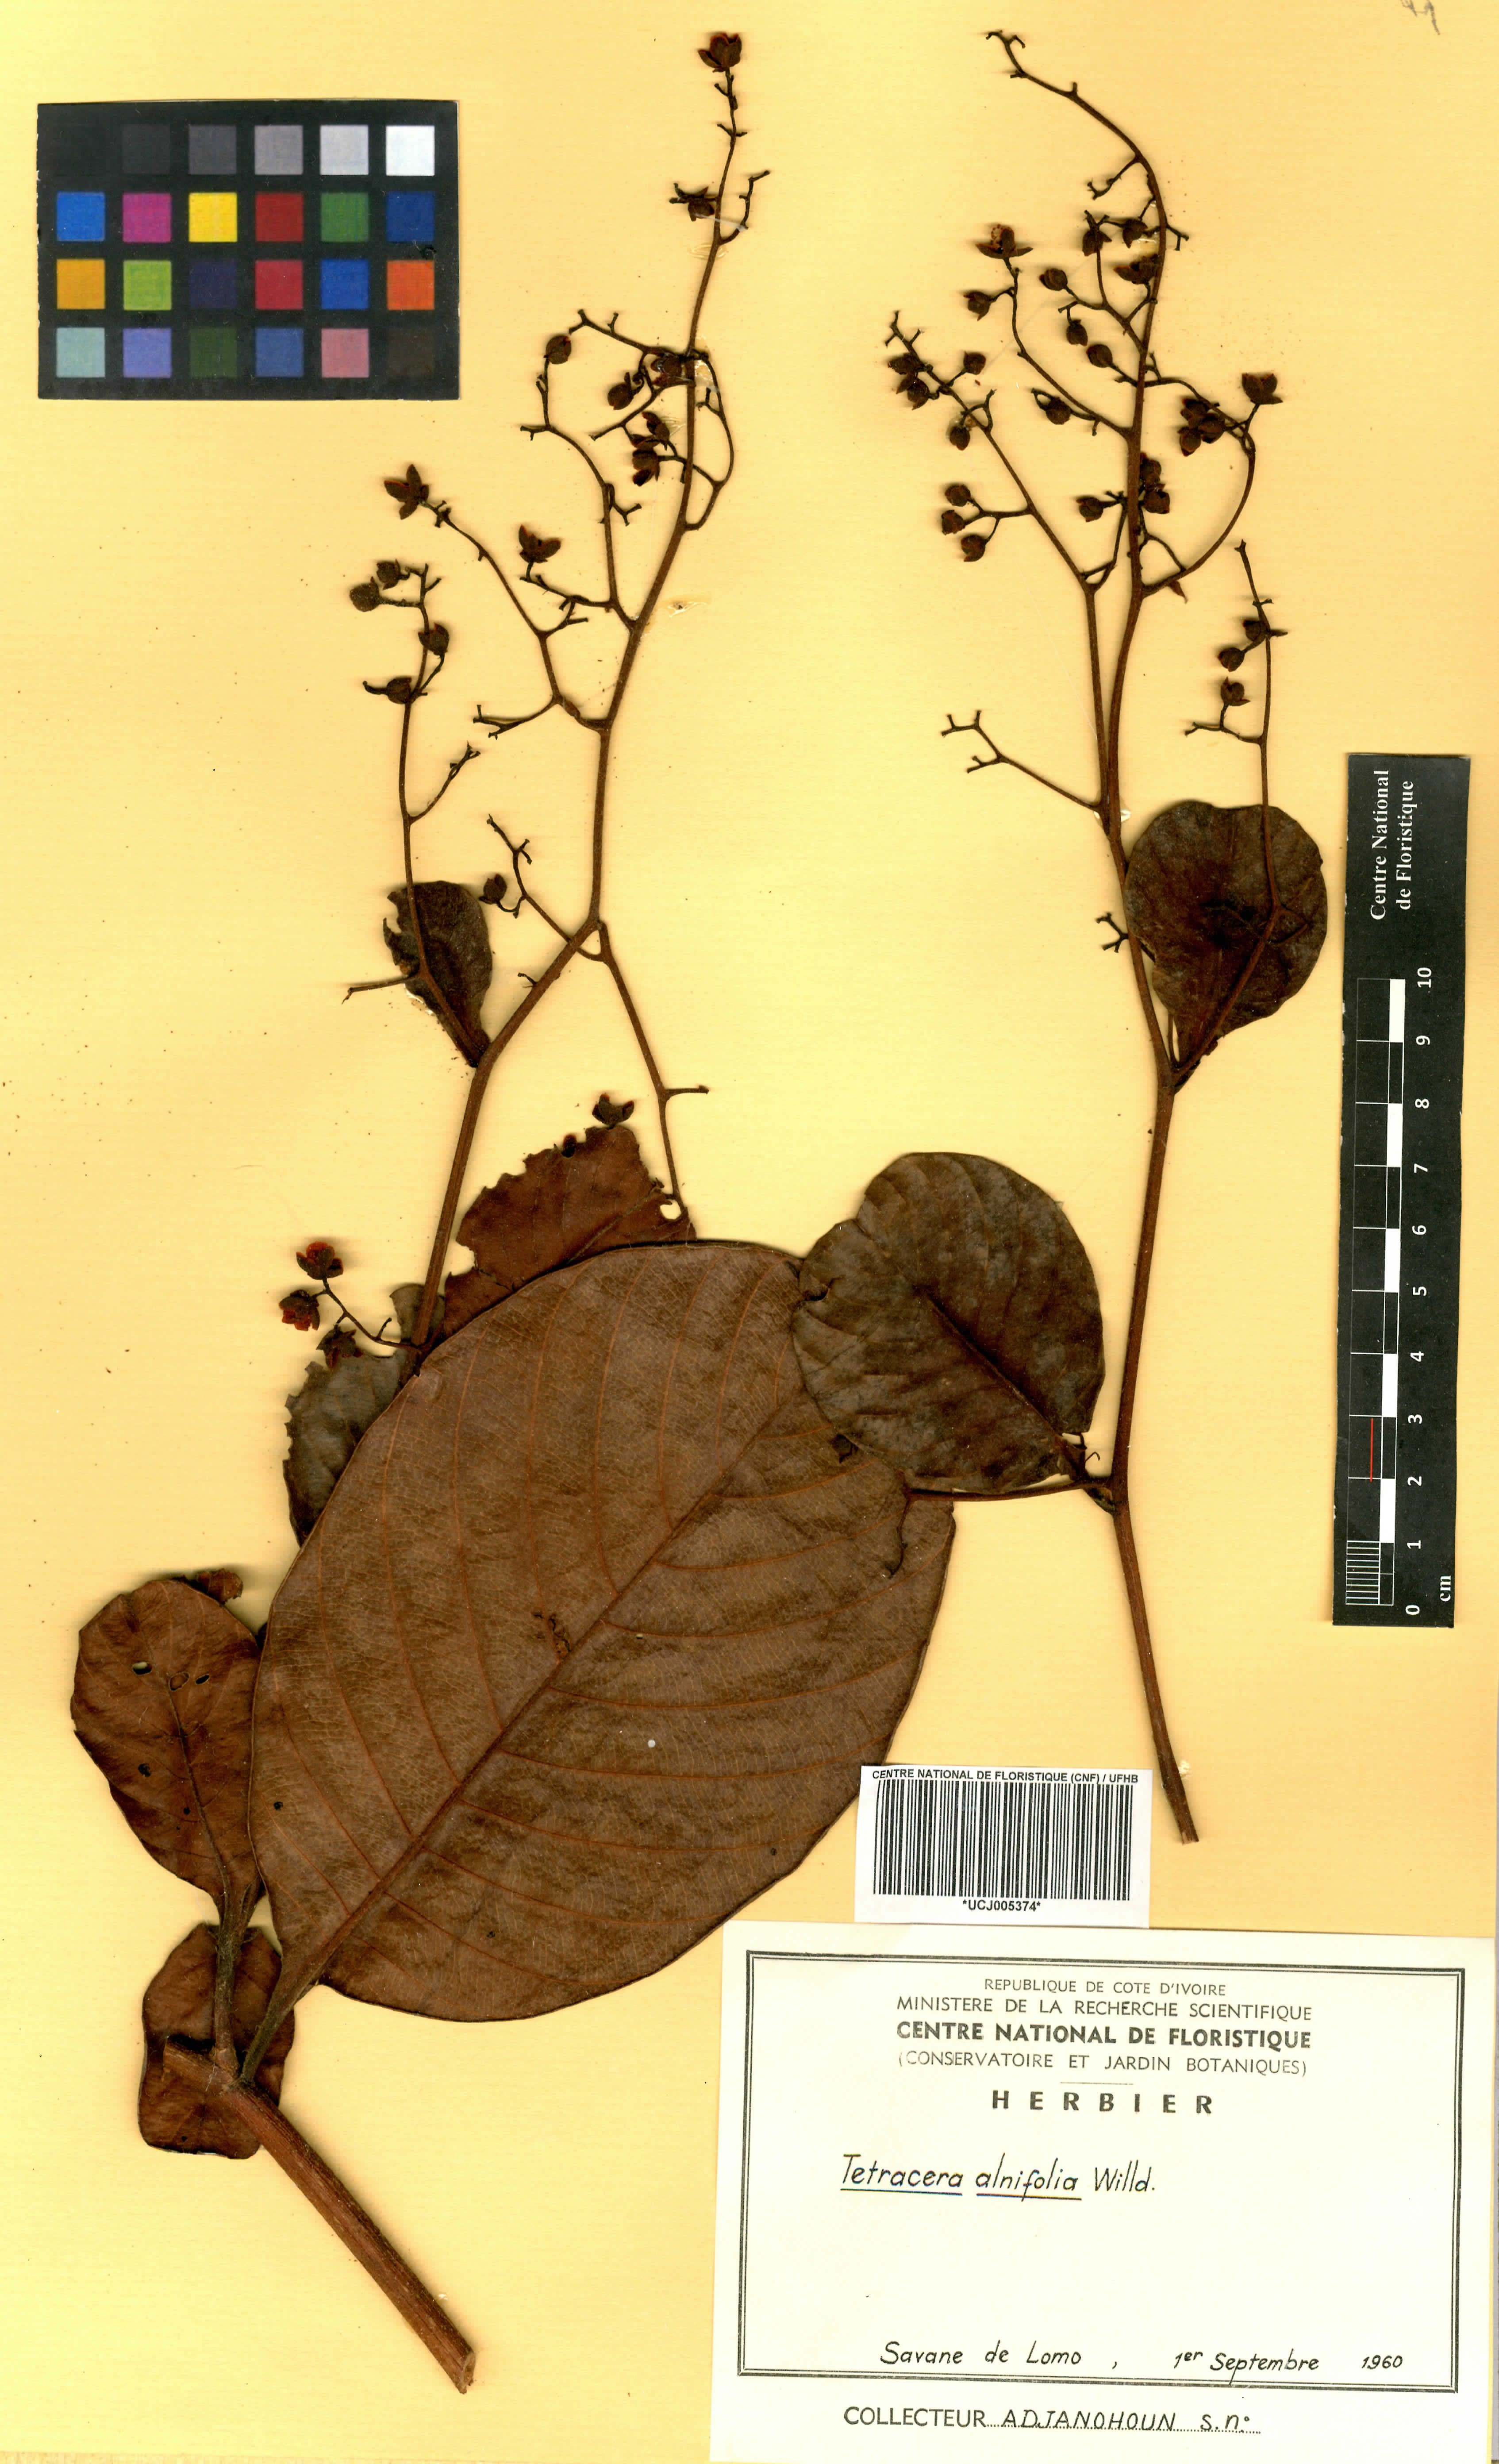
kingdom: Plantae
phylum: Tracheophyta
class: Magnoliopsida
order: Dilleniales
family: Dilleniaceae
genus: Tetracera
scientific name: Tetracera alnifolia
